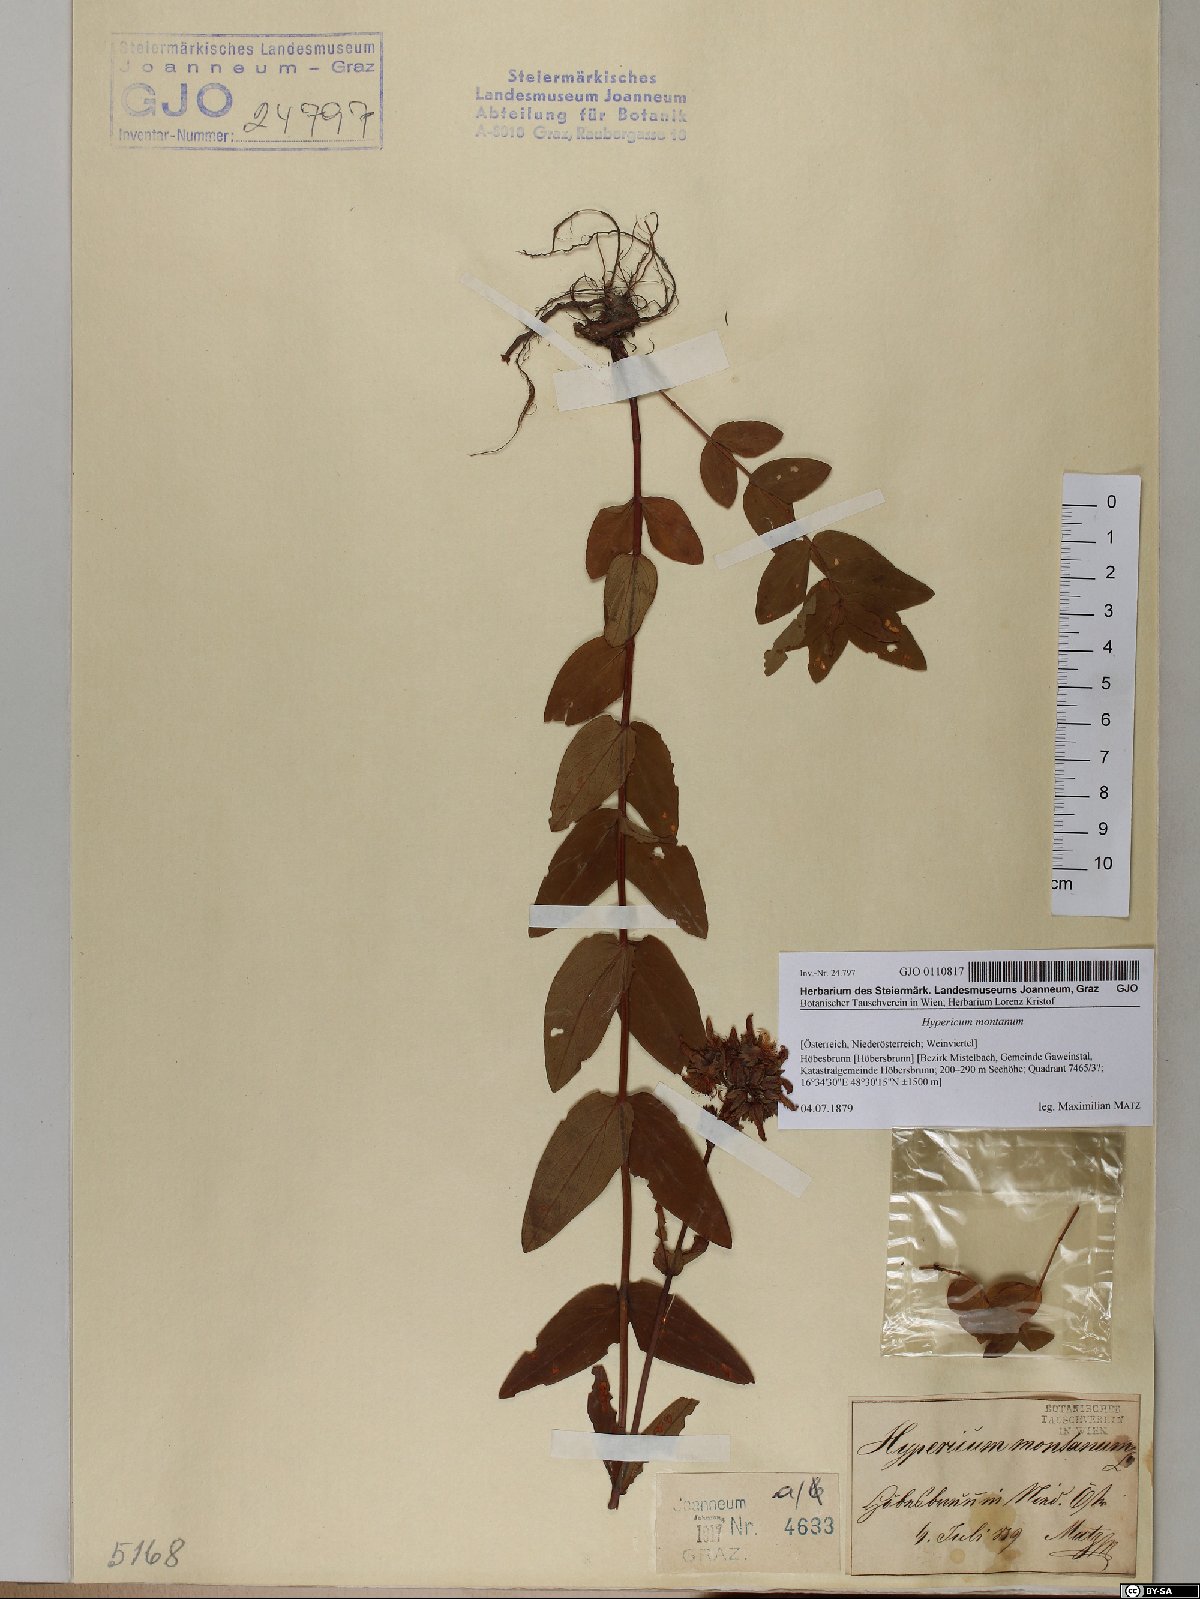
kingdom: Plantae
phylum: Tracheophyta
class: Magnoliopsida
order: Malpighiales
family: Hypericaceae
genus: Hypericum
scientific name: Hypericum montanum
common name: Pale st. john's-wort
